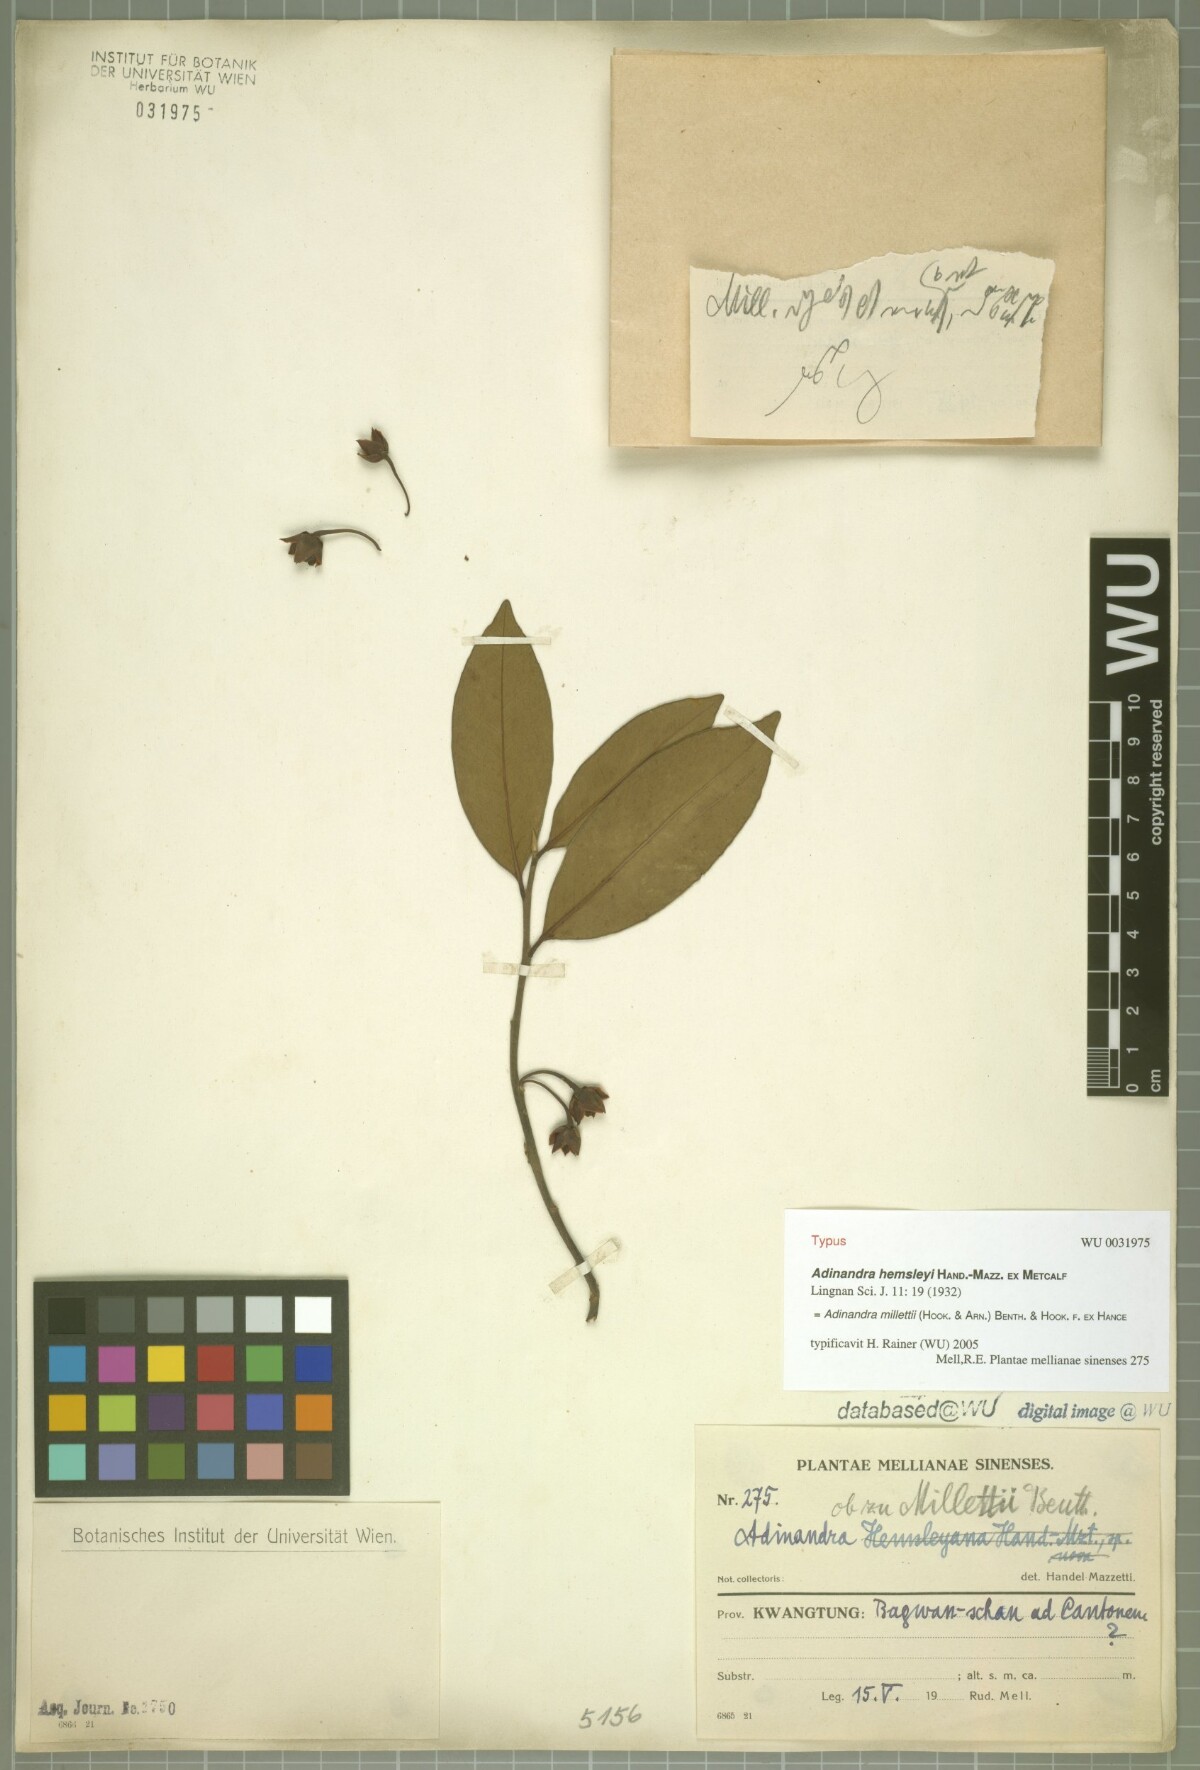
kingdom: Plantae
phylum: Tracheophyta
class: Magnoliopsida
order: Ericales
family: Pentaphylacaceae
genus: Adinandra
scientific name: Adinandra millettii
